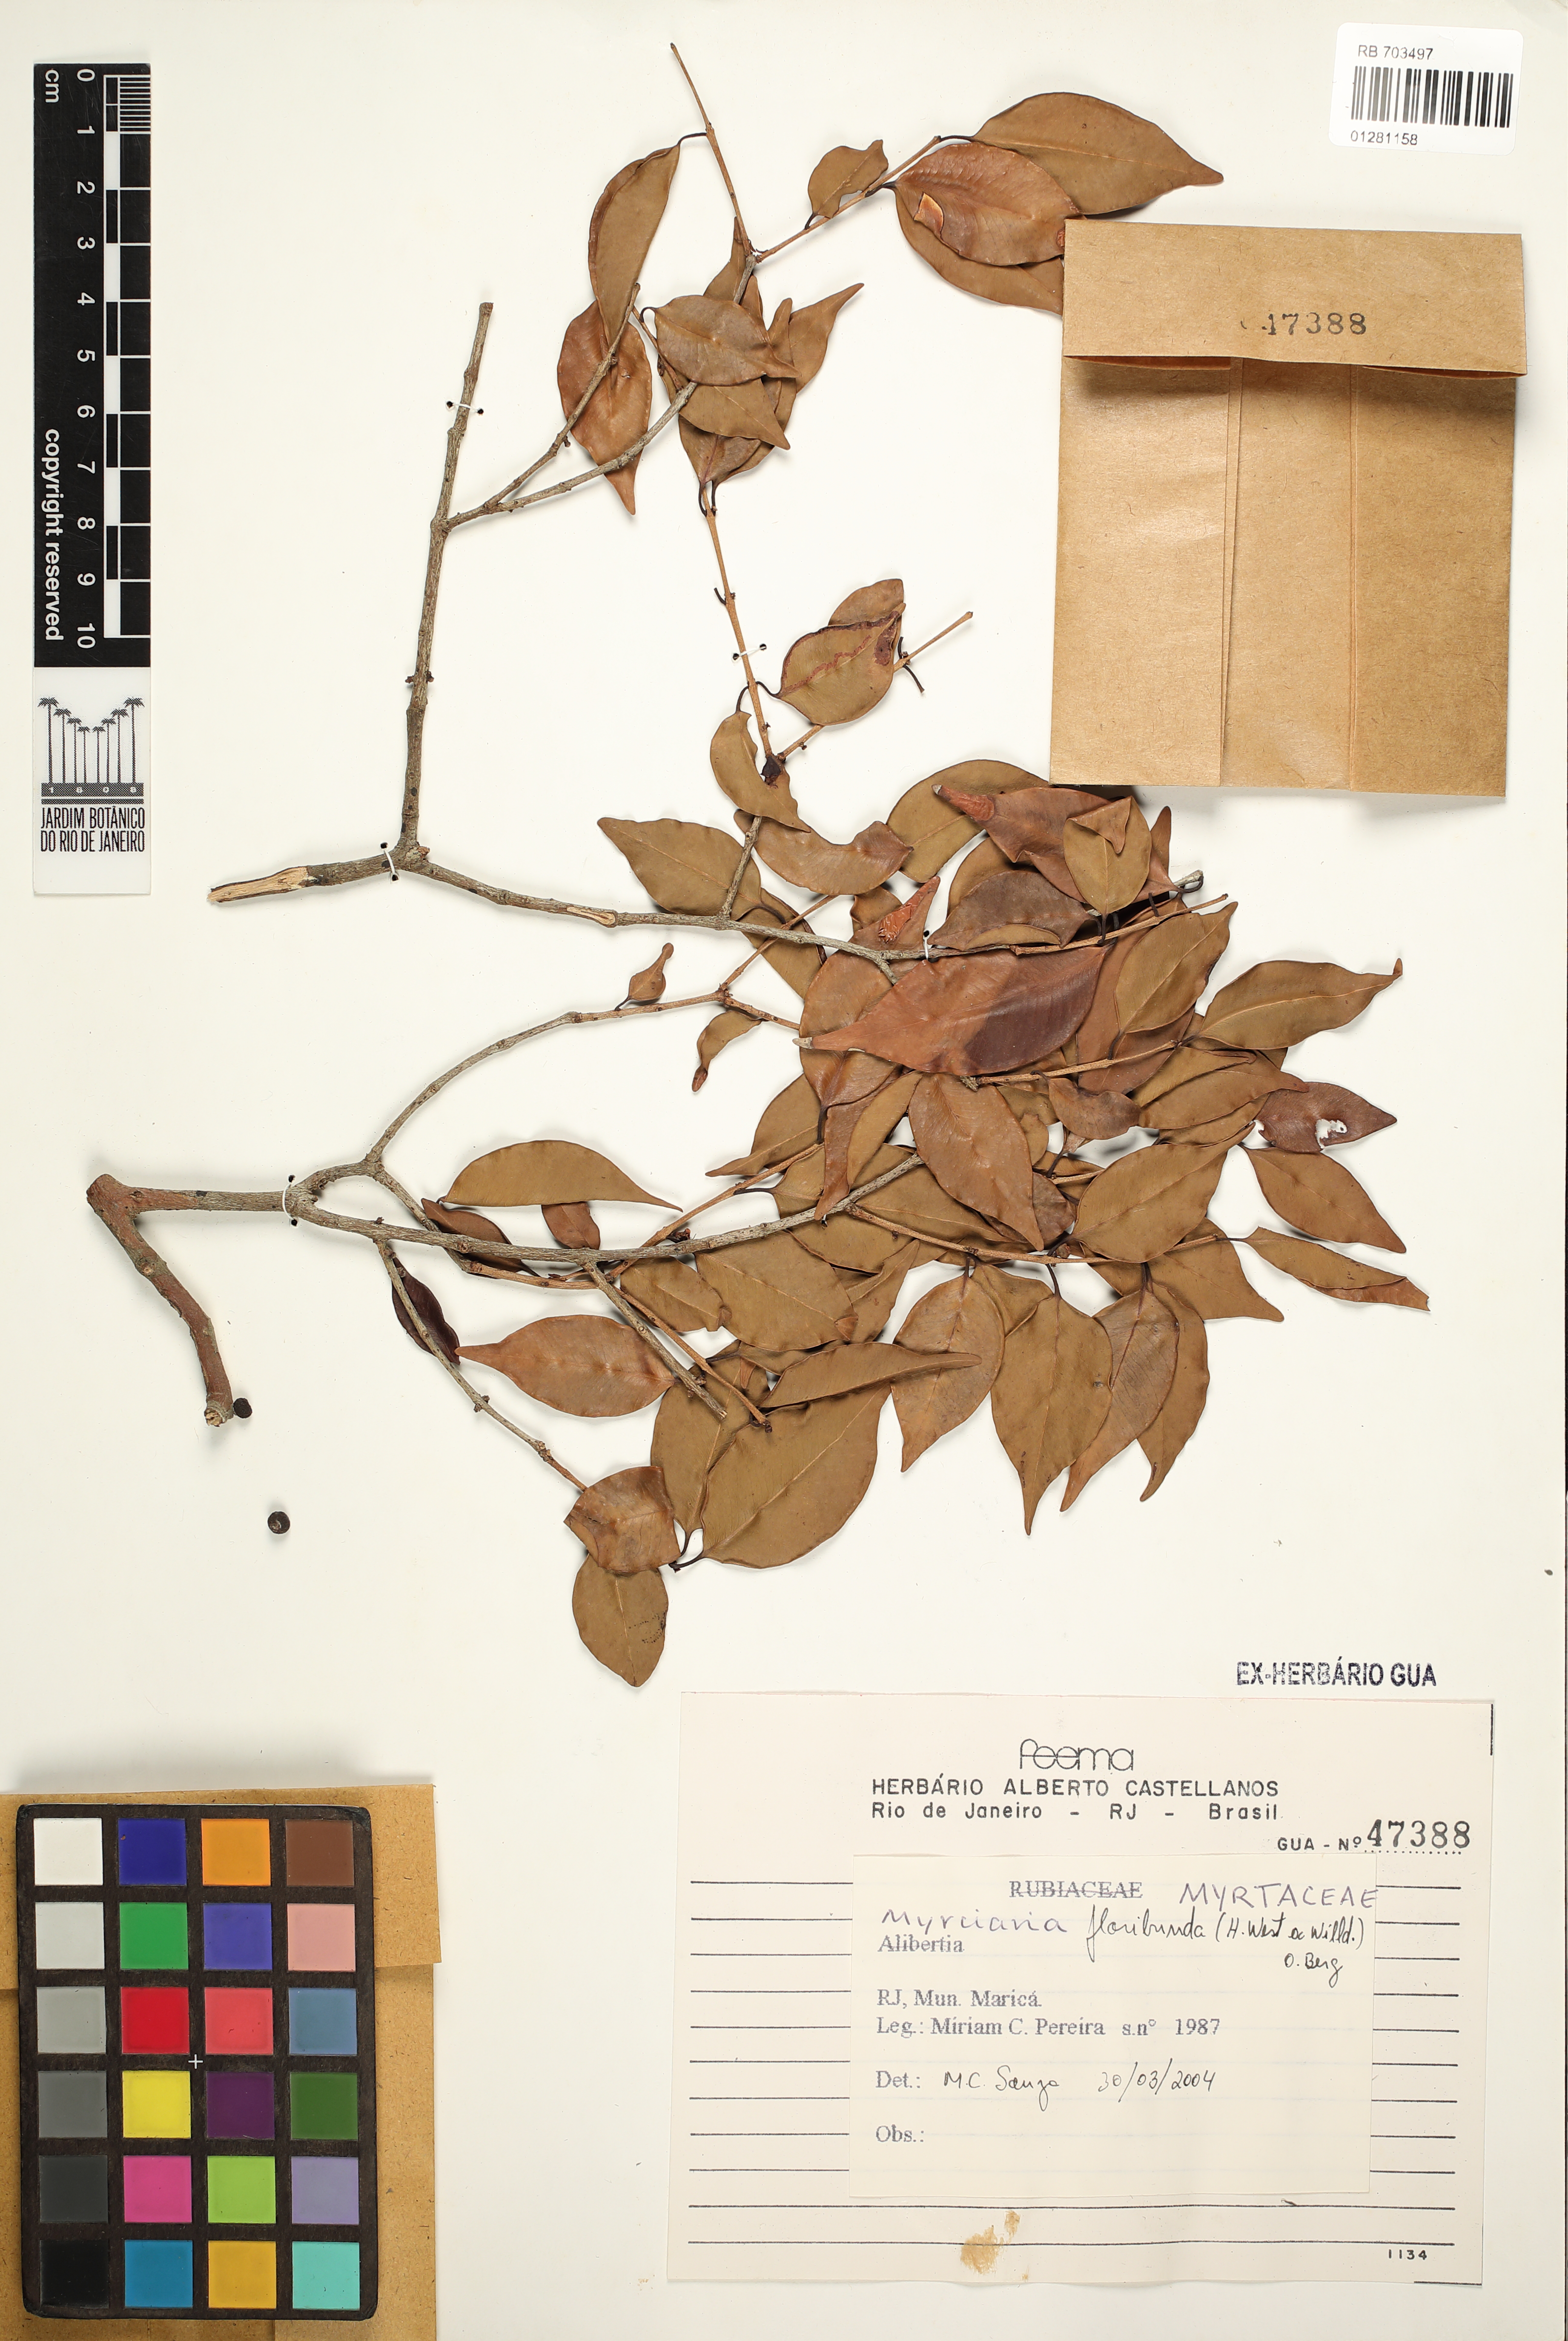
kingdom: Plantae
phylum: Tracheophyta
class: Magnoliopsida
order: Myrtales
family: Myrtaceae
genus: Myrciaria
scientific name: Myrciaria floribunda
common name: Guavaberry
